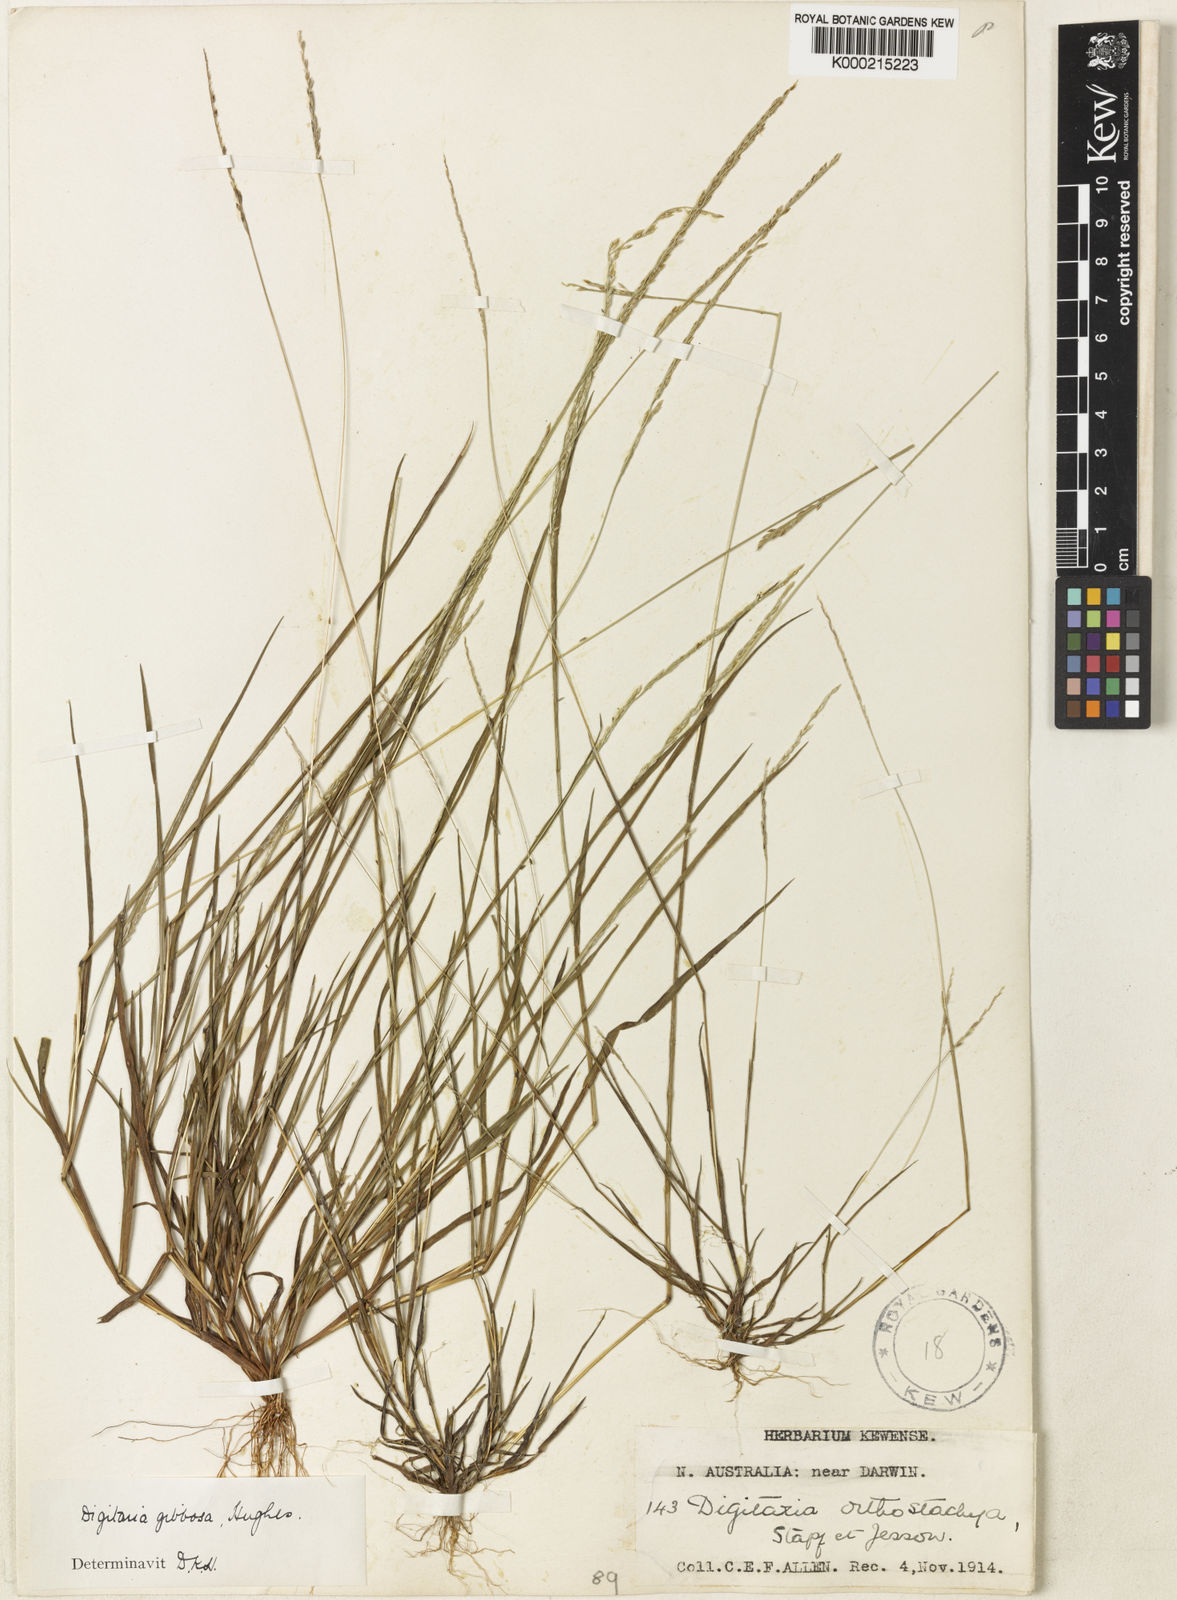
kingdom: Plantae
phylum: Tracheophyta
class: Liliopsida
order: Poales
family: Poaceae
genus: Digitaria
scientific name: Digitaria gibbosa
